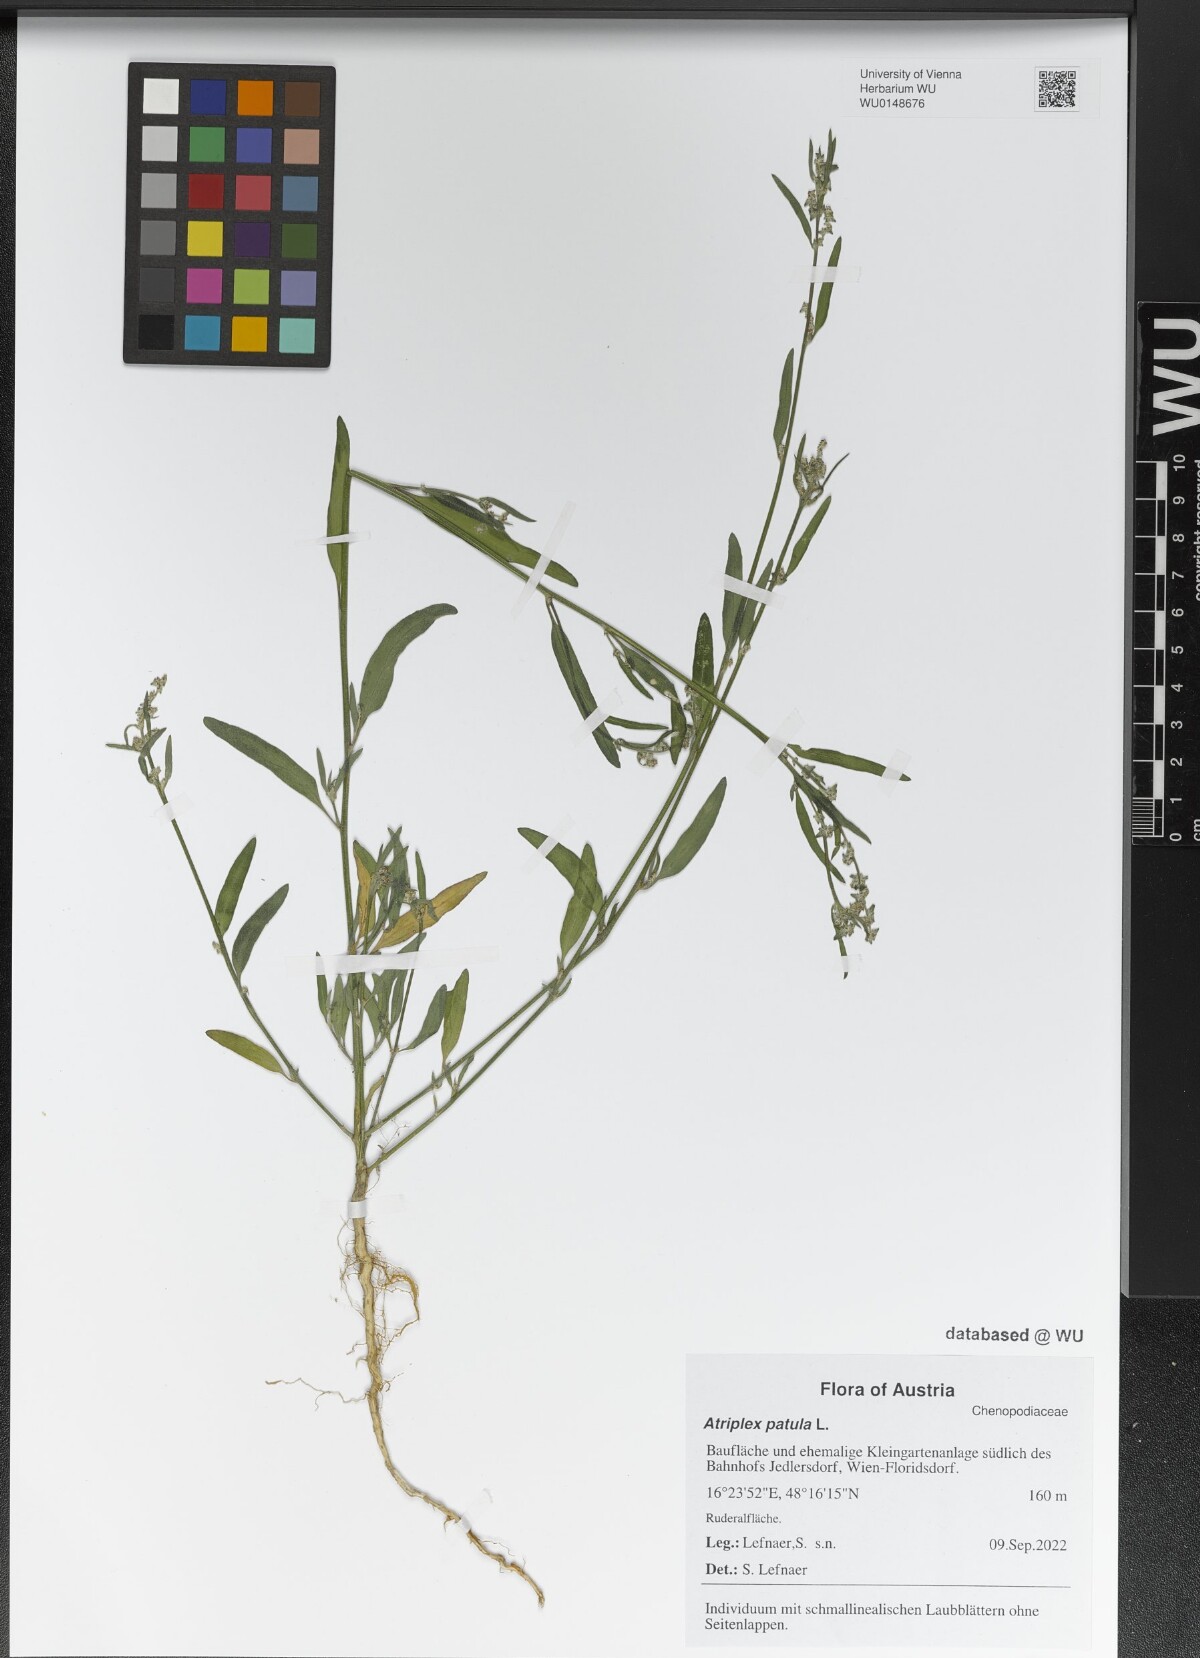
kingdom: Plantae
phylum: Tracheophyta
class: Magnoliopsida
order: Caryophyllales
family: Amaranthaceae
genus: Atriplex
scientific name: Atriplex patula
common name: Common orache
